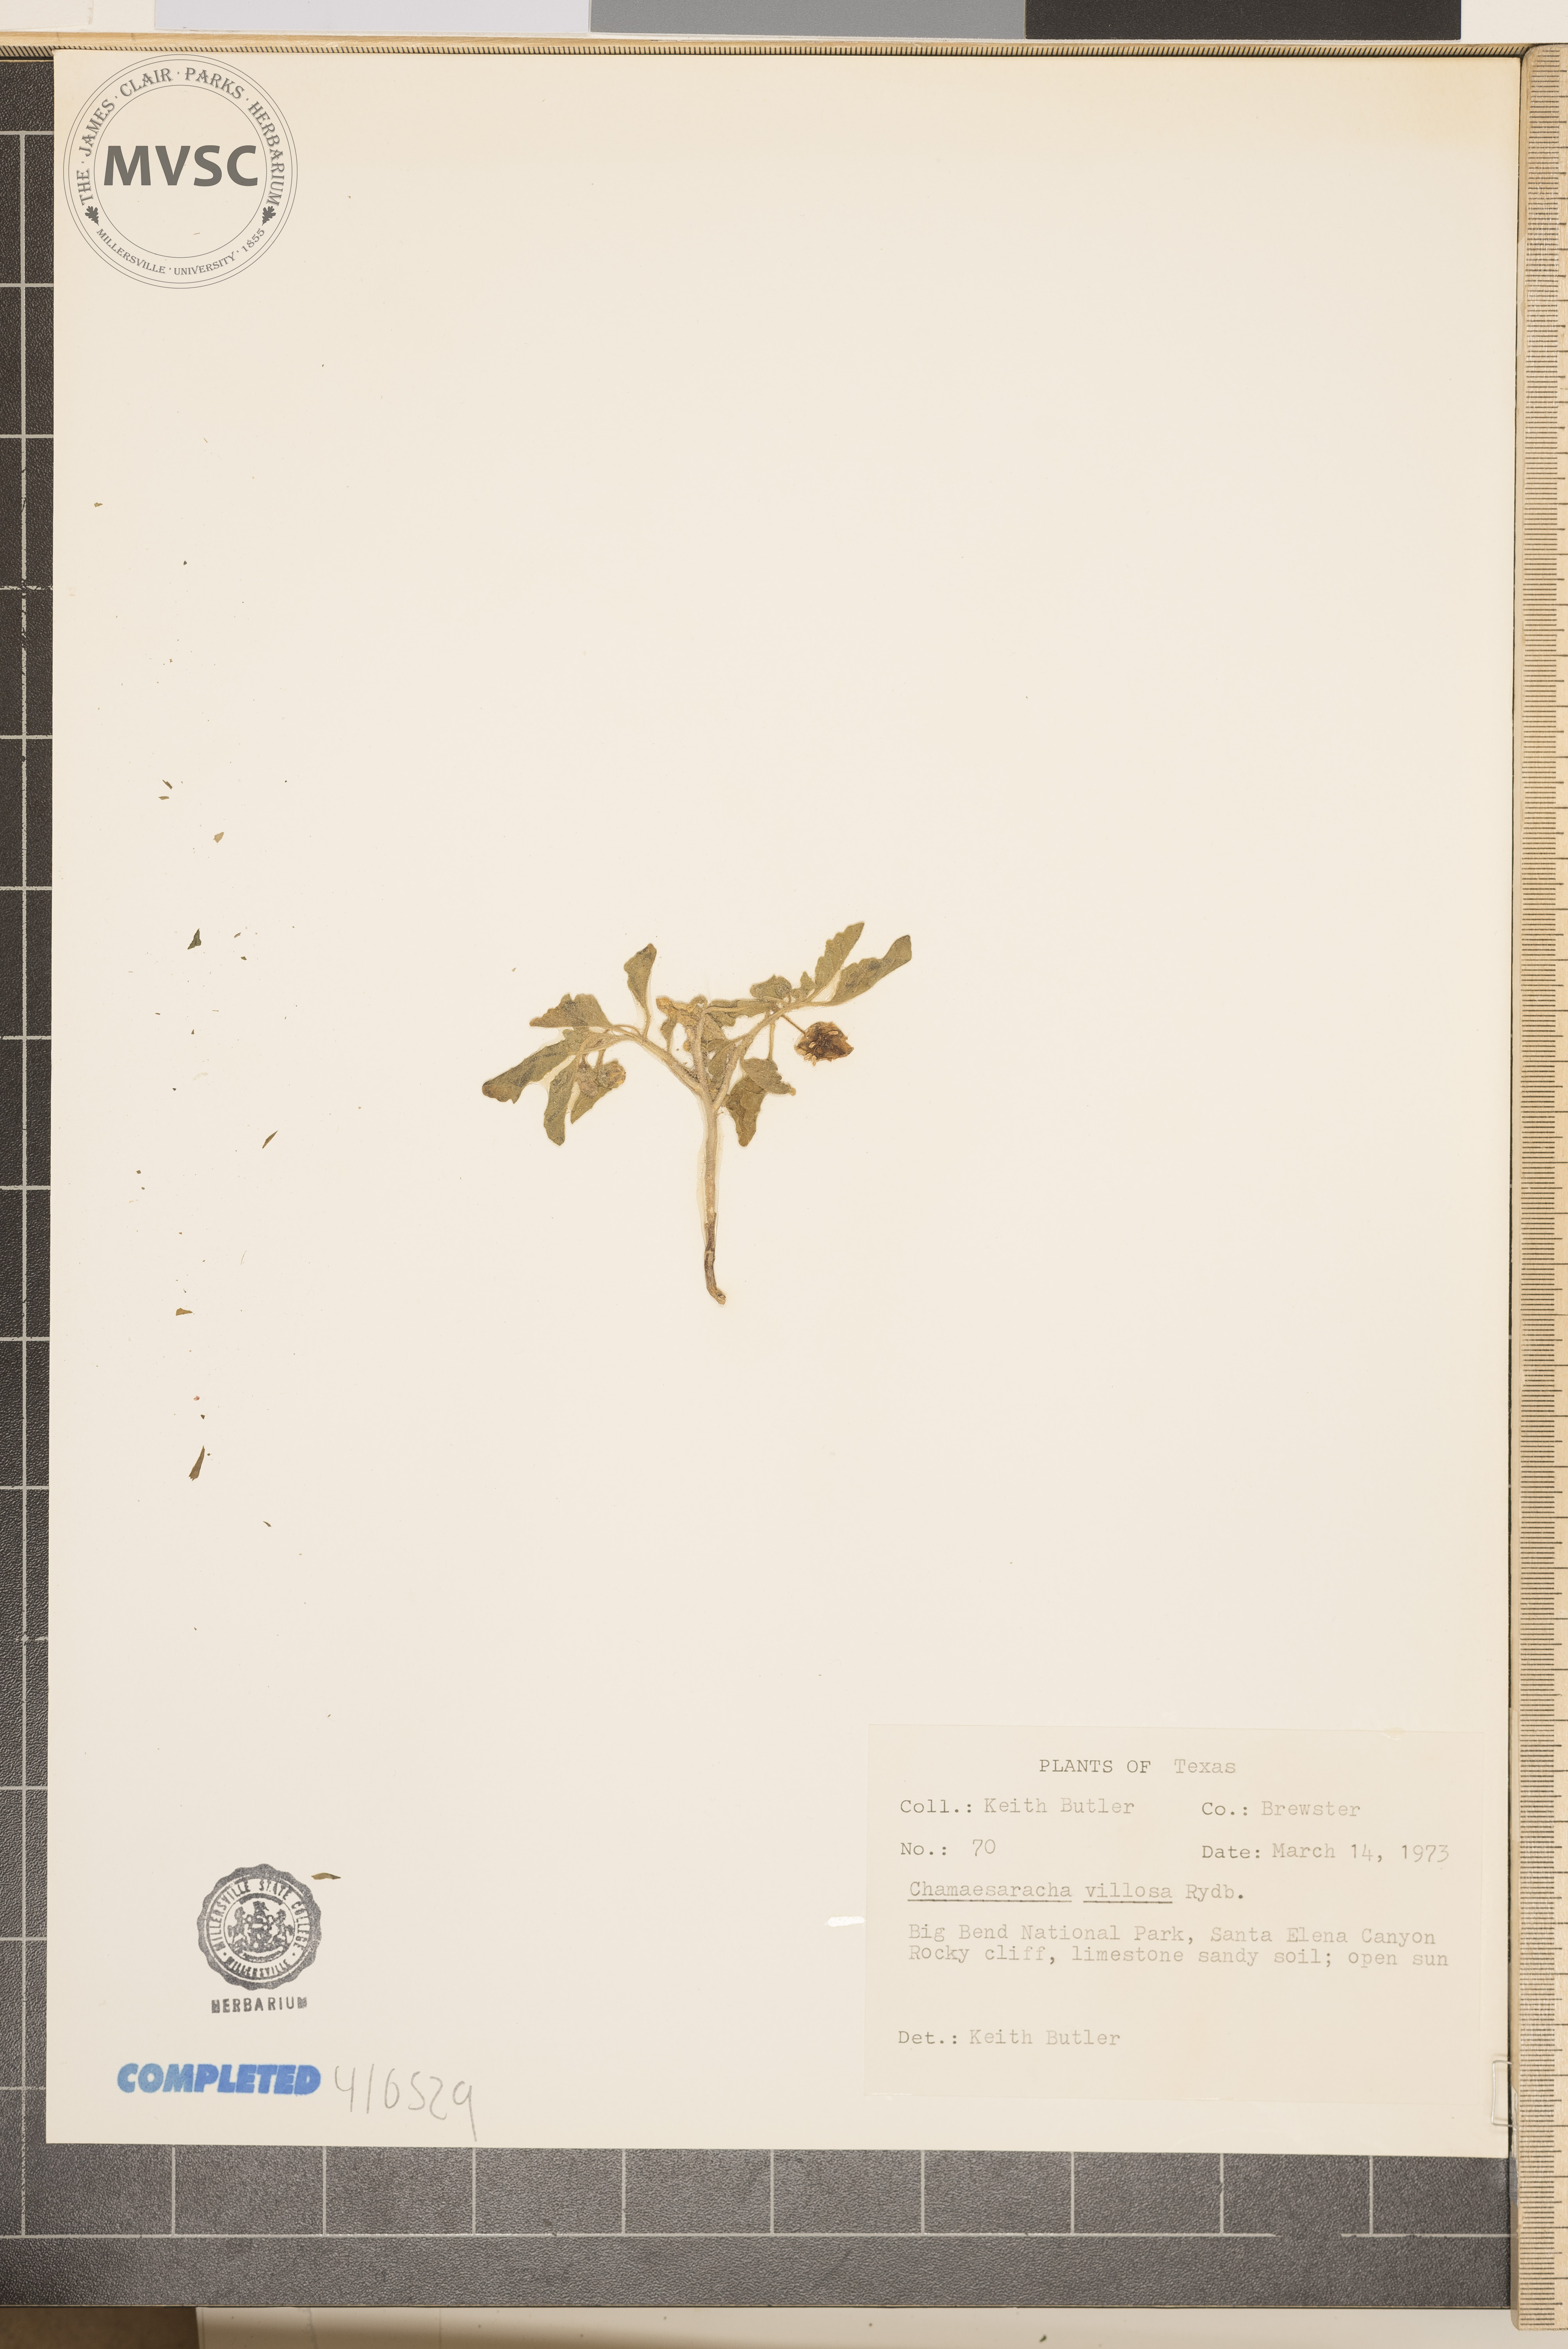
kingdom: Plantae
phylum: Tracheophyta
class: Magnoliopsida
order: Solanales
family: Solanaceae
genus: Chamaesaracha
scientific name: Chamaesaracha villosa
